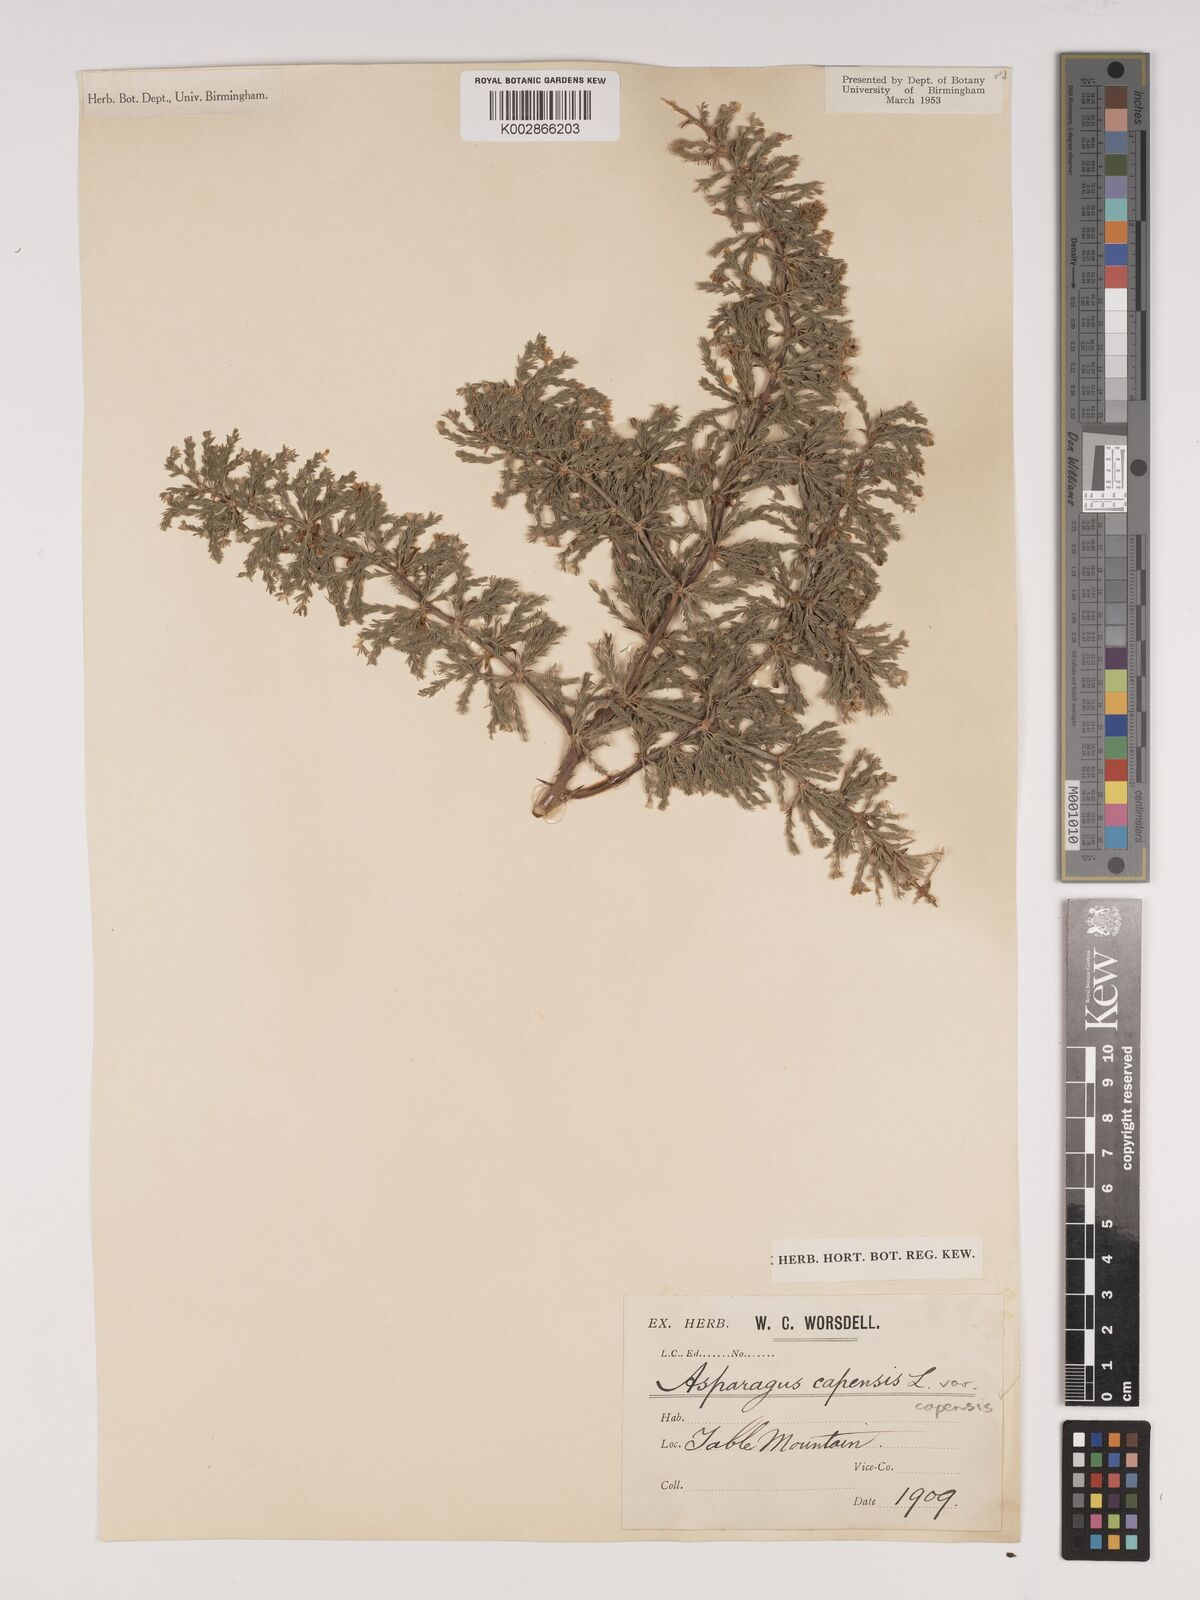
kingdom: Plantae
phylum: Tracheophyta
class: Liliopsida
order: Asparagales
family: Asparagaceae
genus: Asparagus
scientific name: Asparagus capensis
